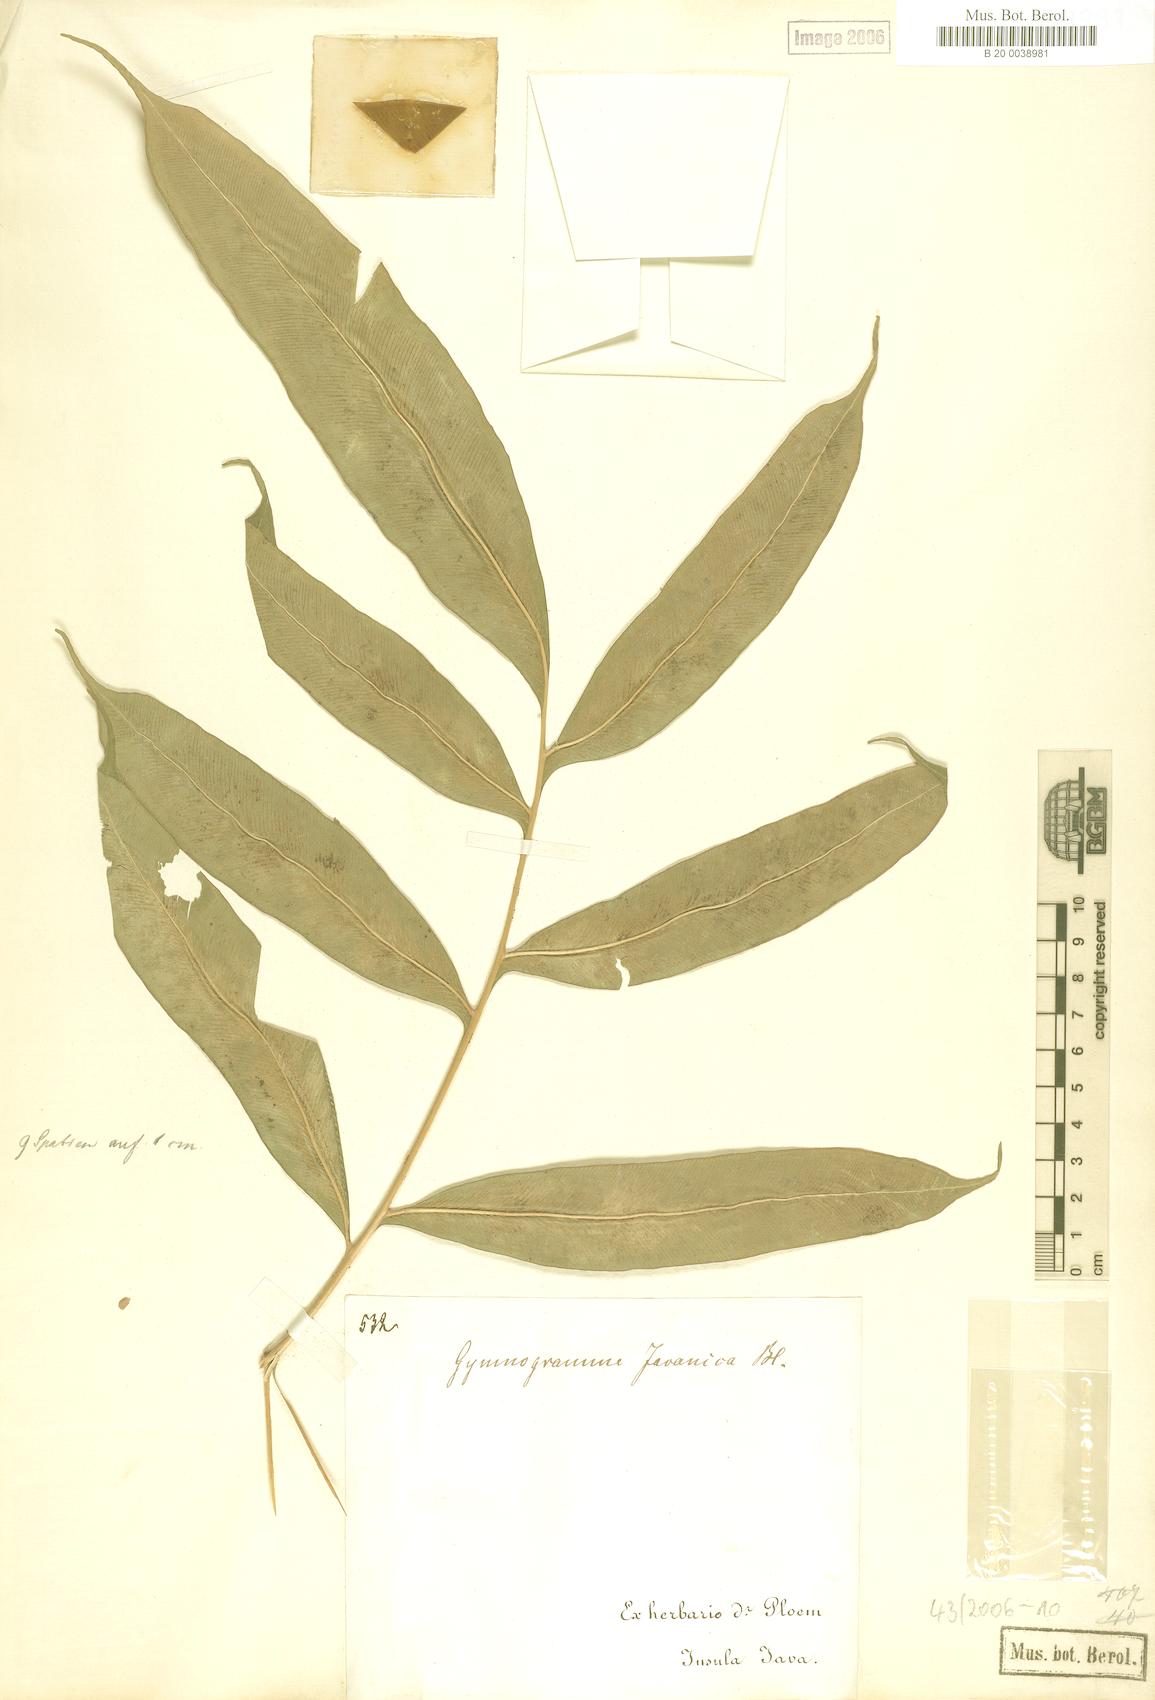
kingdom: Plantae
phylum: Tracheophyta
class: Polypodiopsida
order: Polypodiales
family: Pteridaceae
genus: Coniogramme
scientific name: Coniogramme fraxinea
